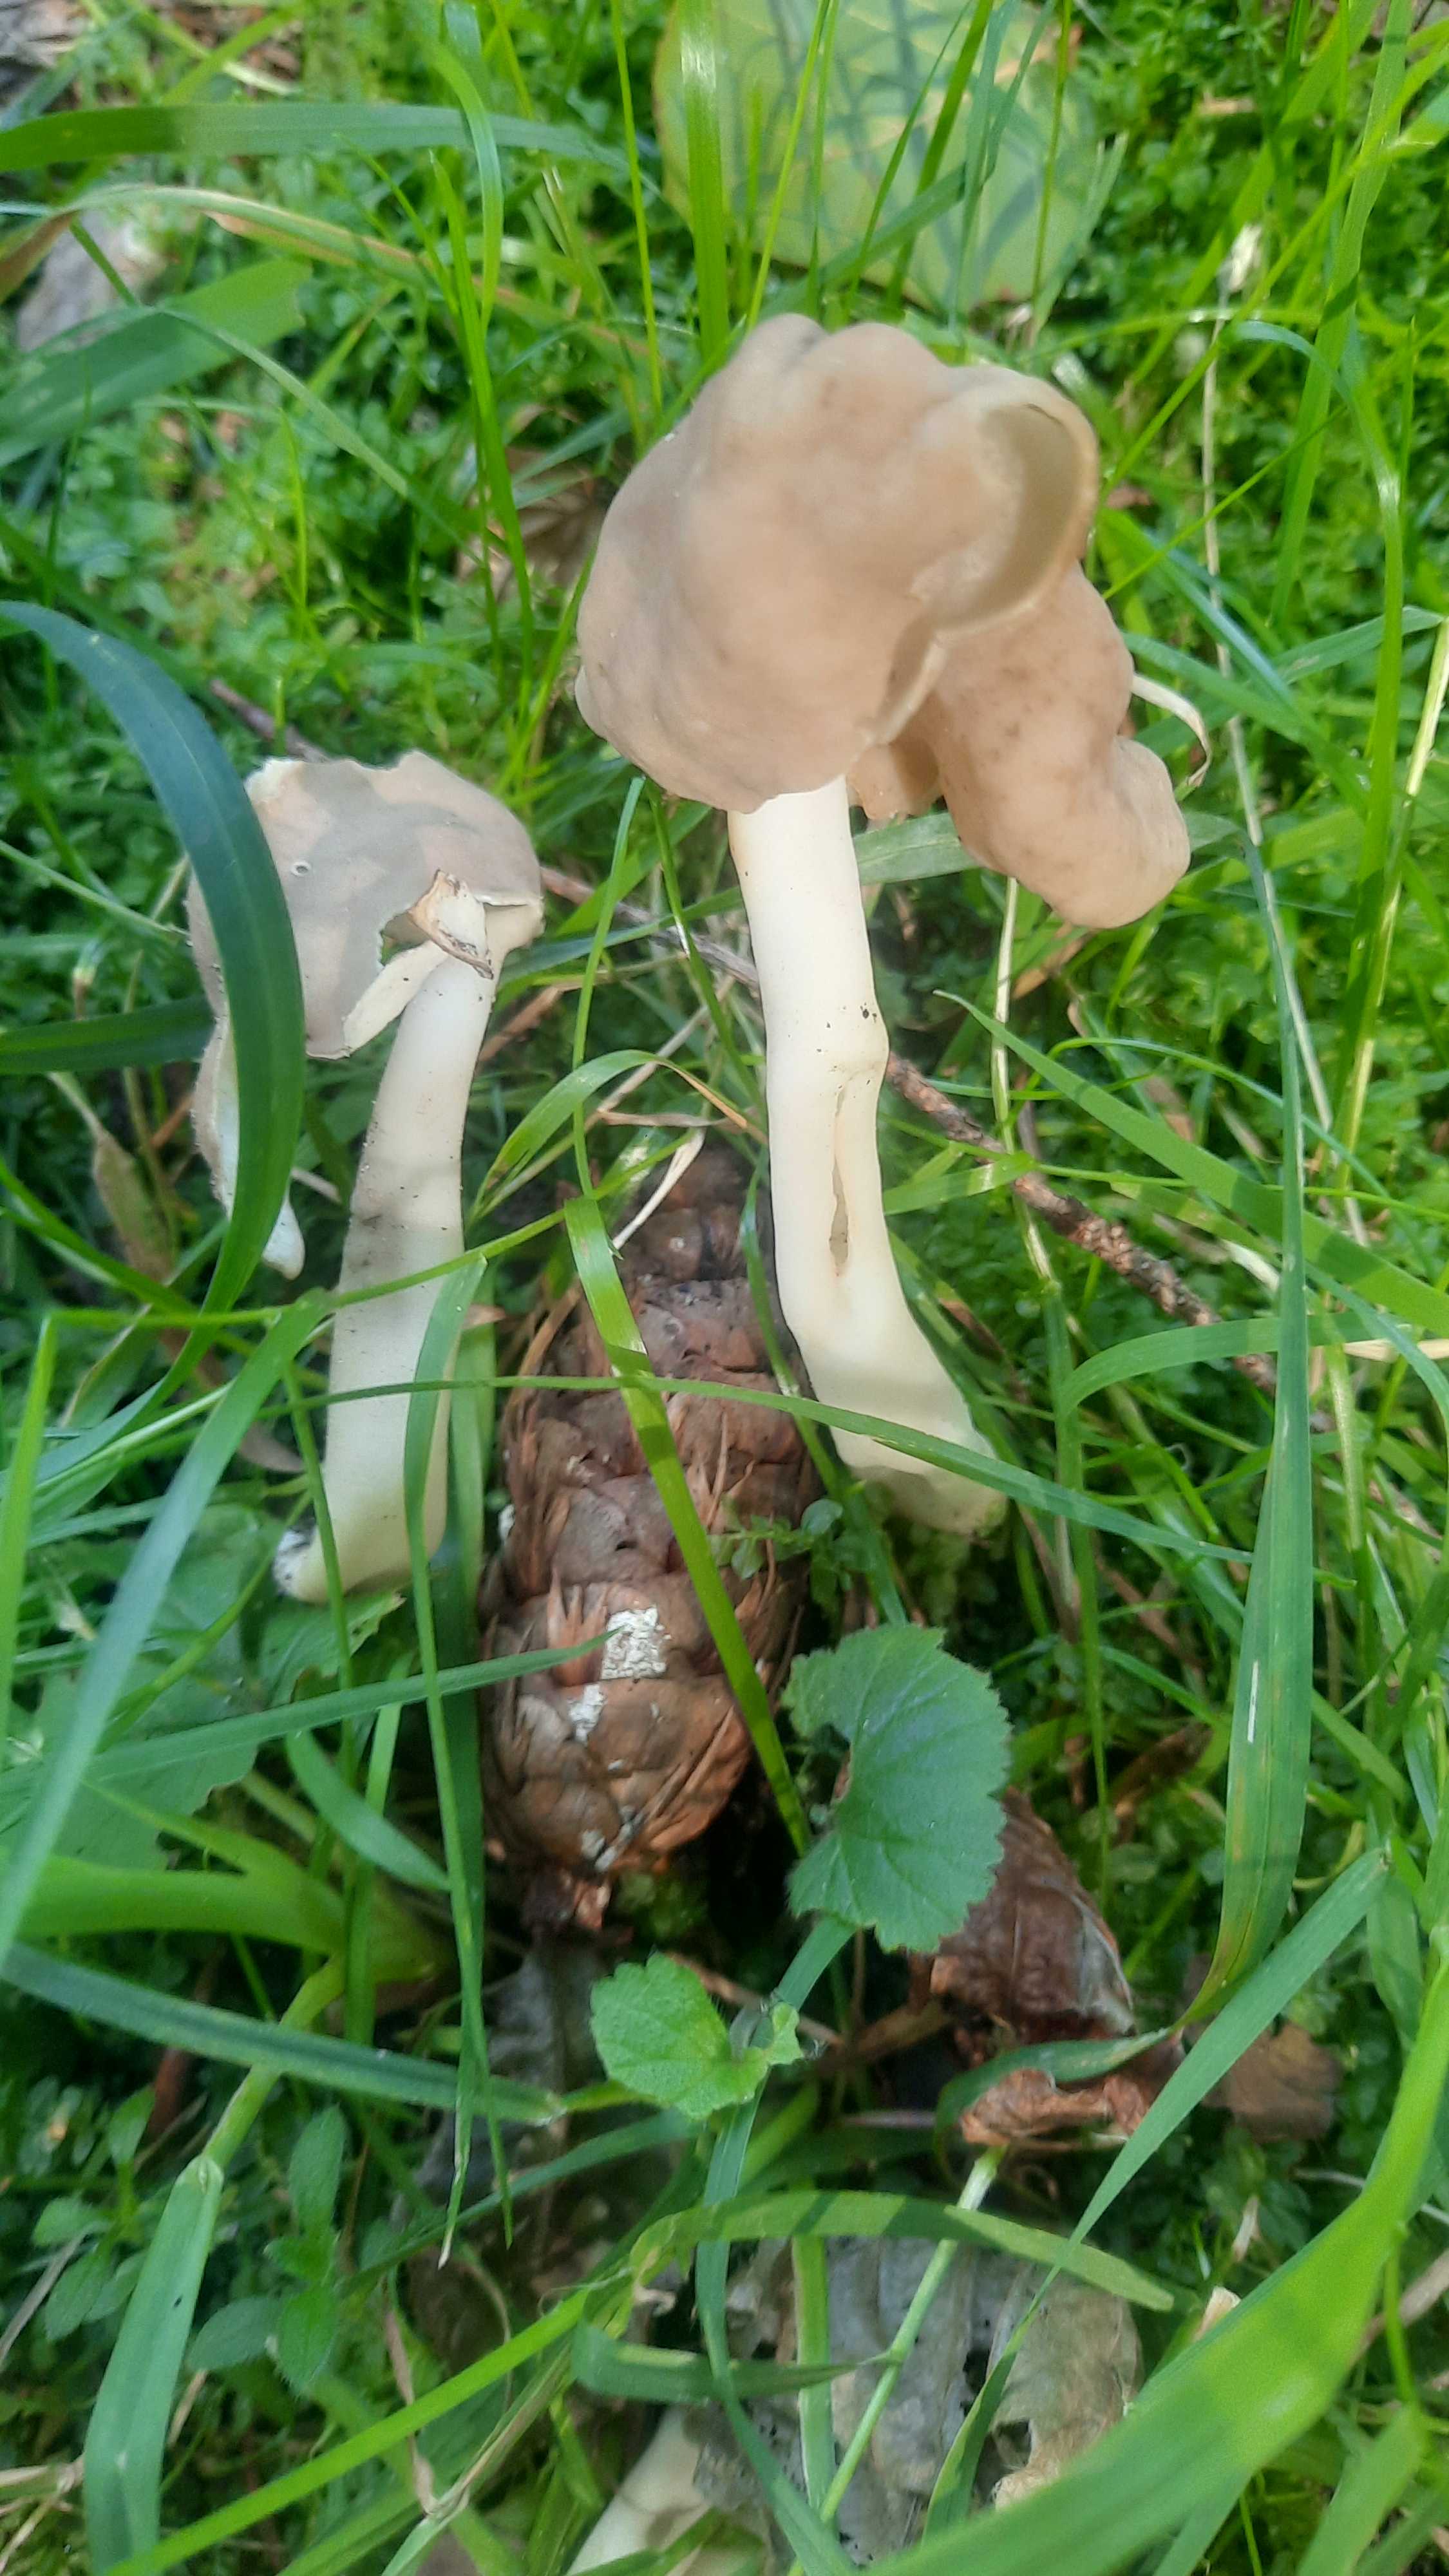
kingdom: Fungi
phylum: Ascomycota
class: Pezizomycetes
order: Pezizales
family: Helvellaceae
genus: Helvella
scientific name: Helvella elastica
